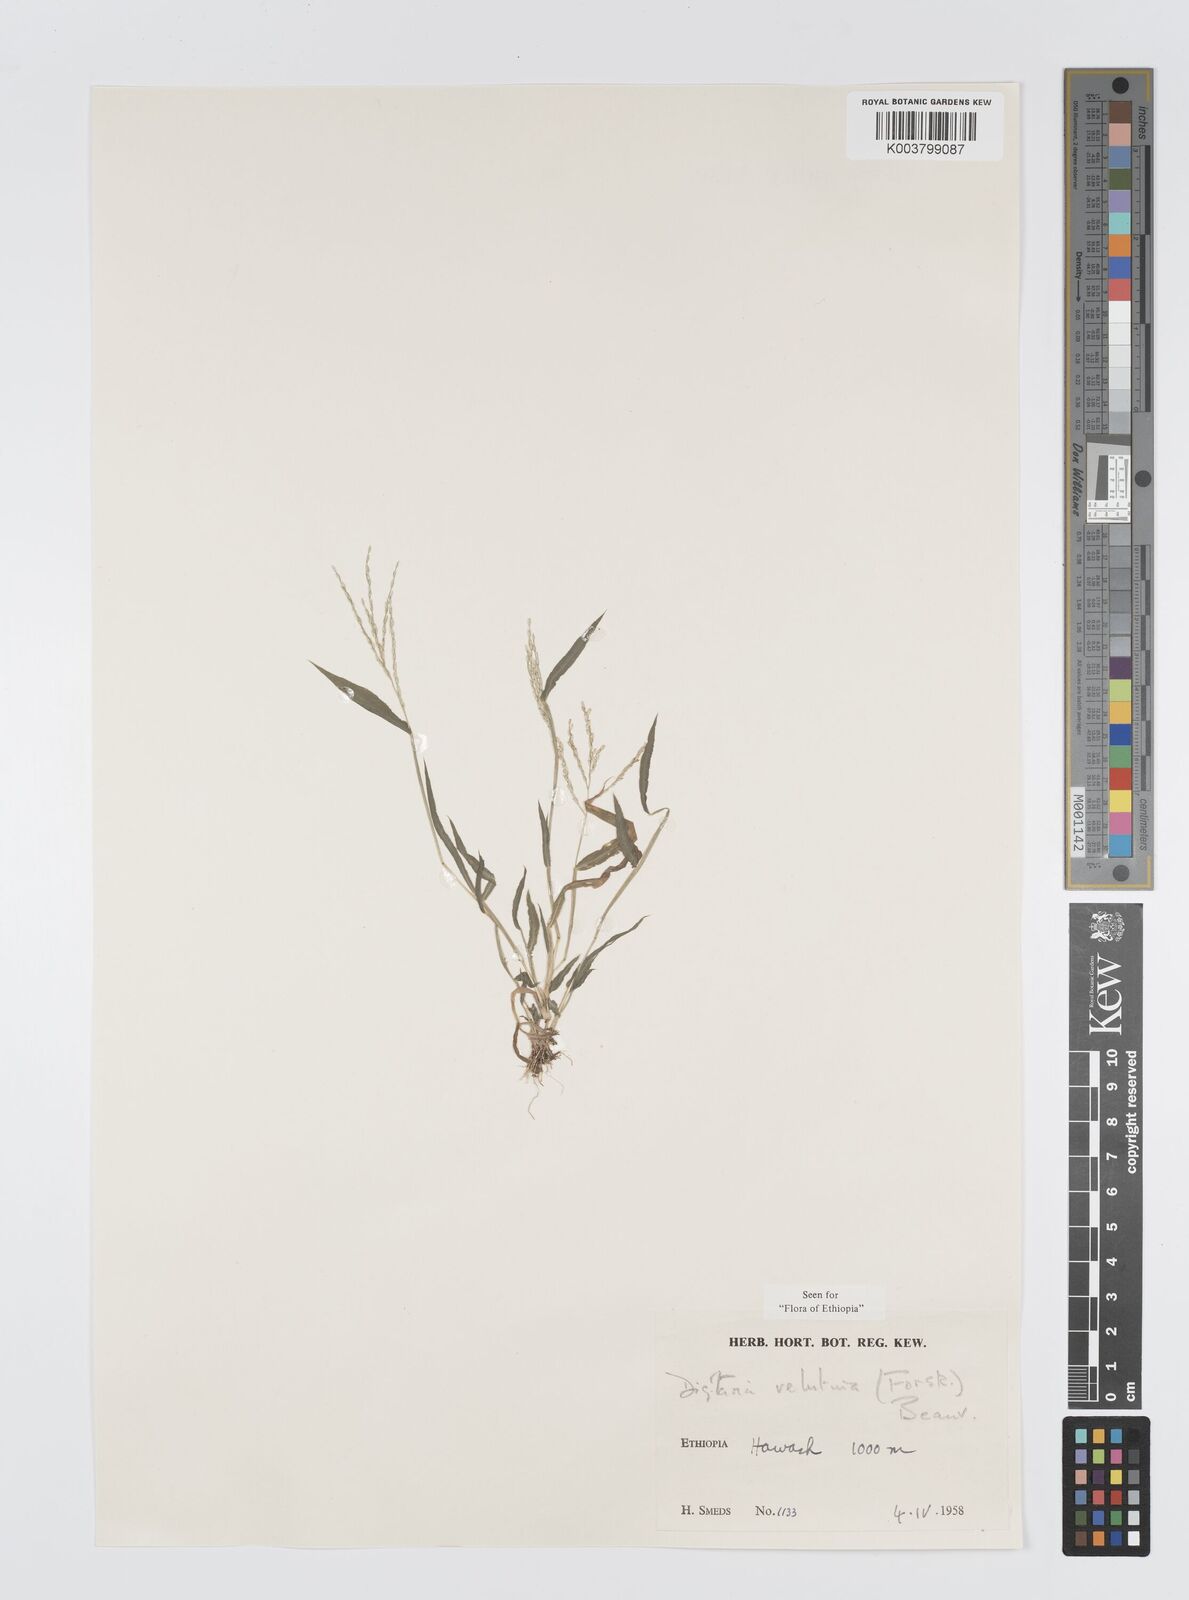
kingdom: Plantae
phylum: Tracheophyta
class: Liliopsida
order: Poales
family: Poaceae
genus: Digitaria
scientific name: Digitaria velutina
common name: Long-plume finger grass
